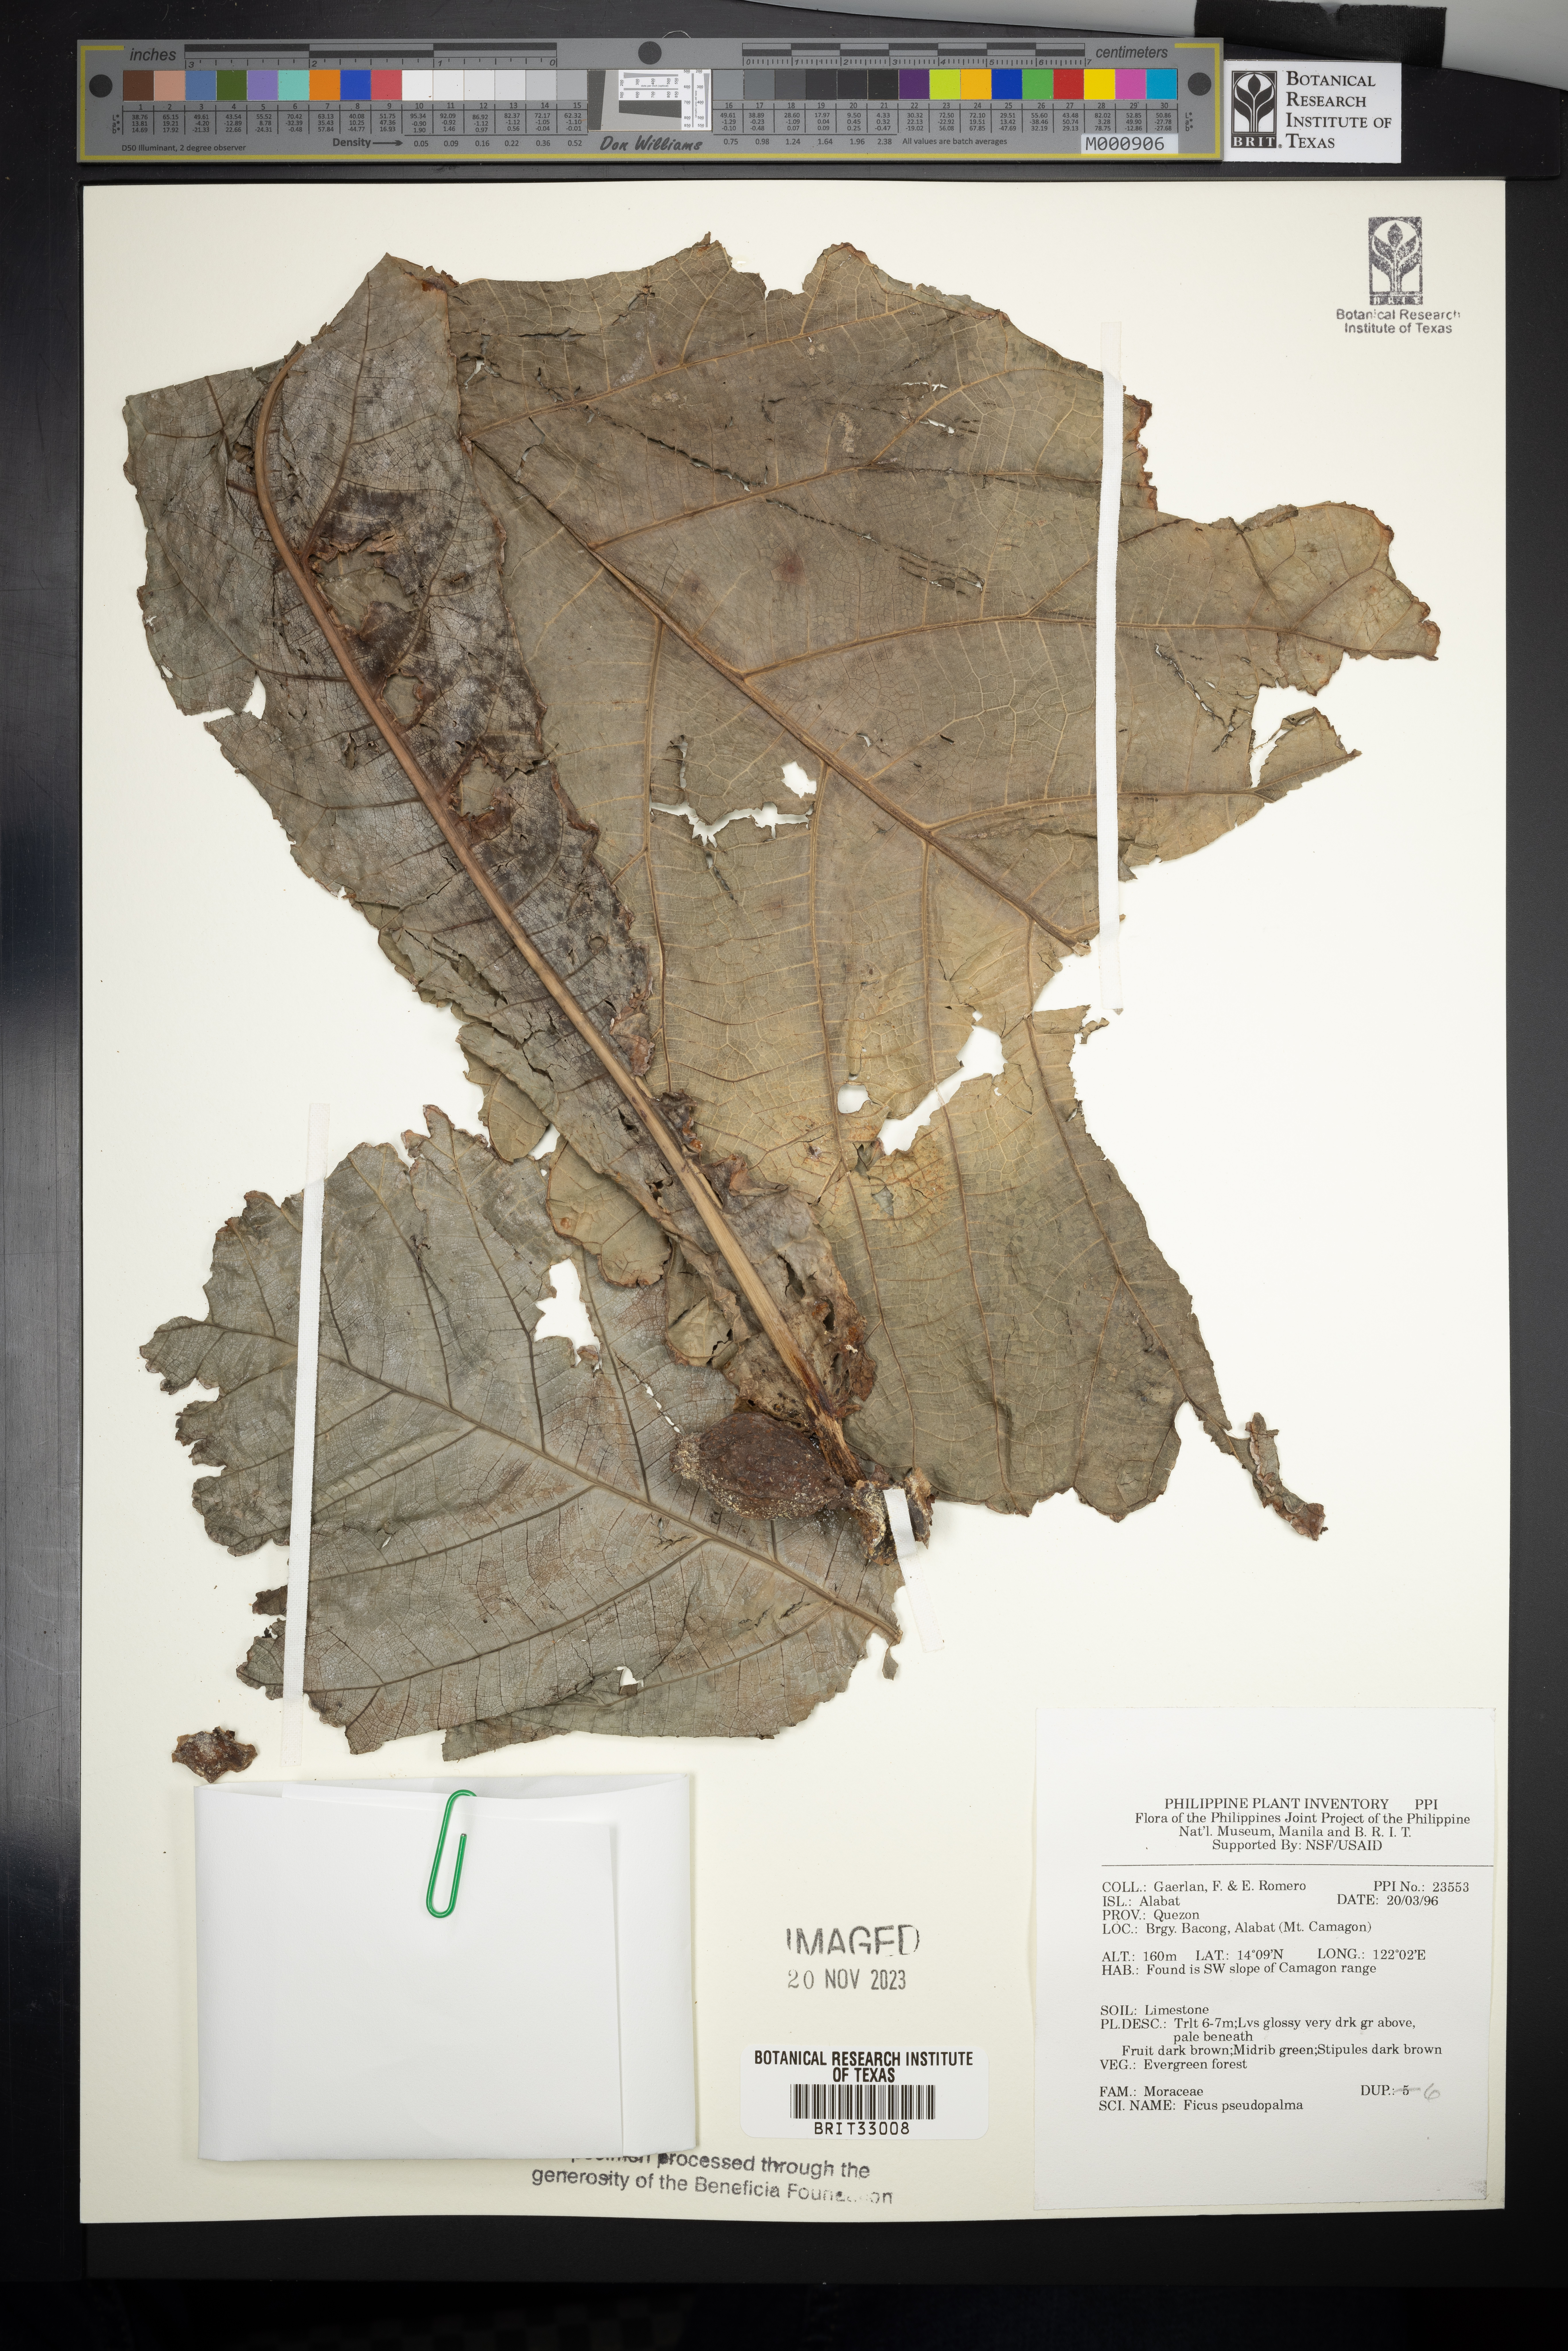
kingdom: Plantae
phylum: Tracheophyta
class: Magnoliopsida
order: Rosales
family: Moraceae
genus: Ficus
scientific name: Ficus pseudopalma
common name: Palm-like fig
